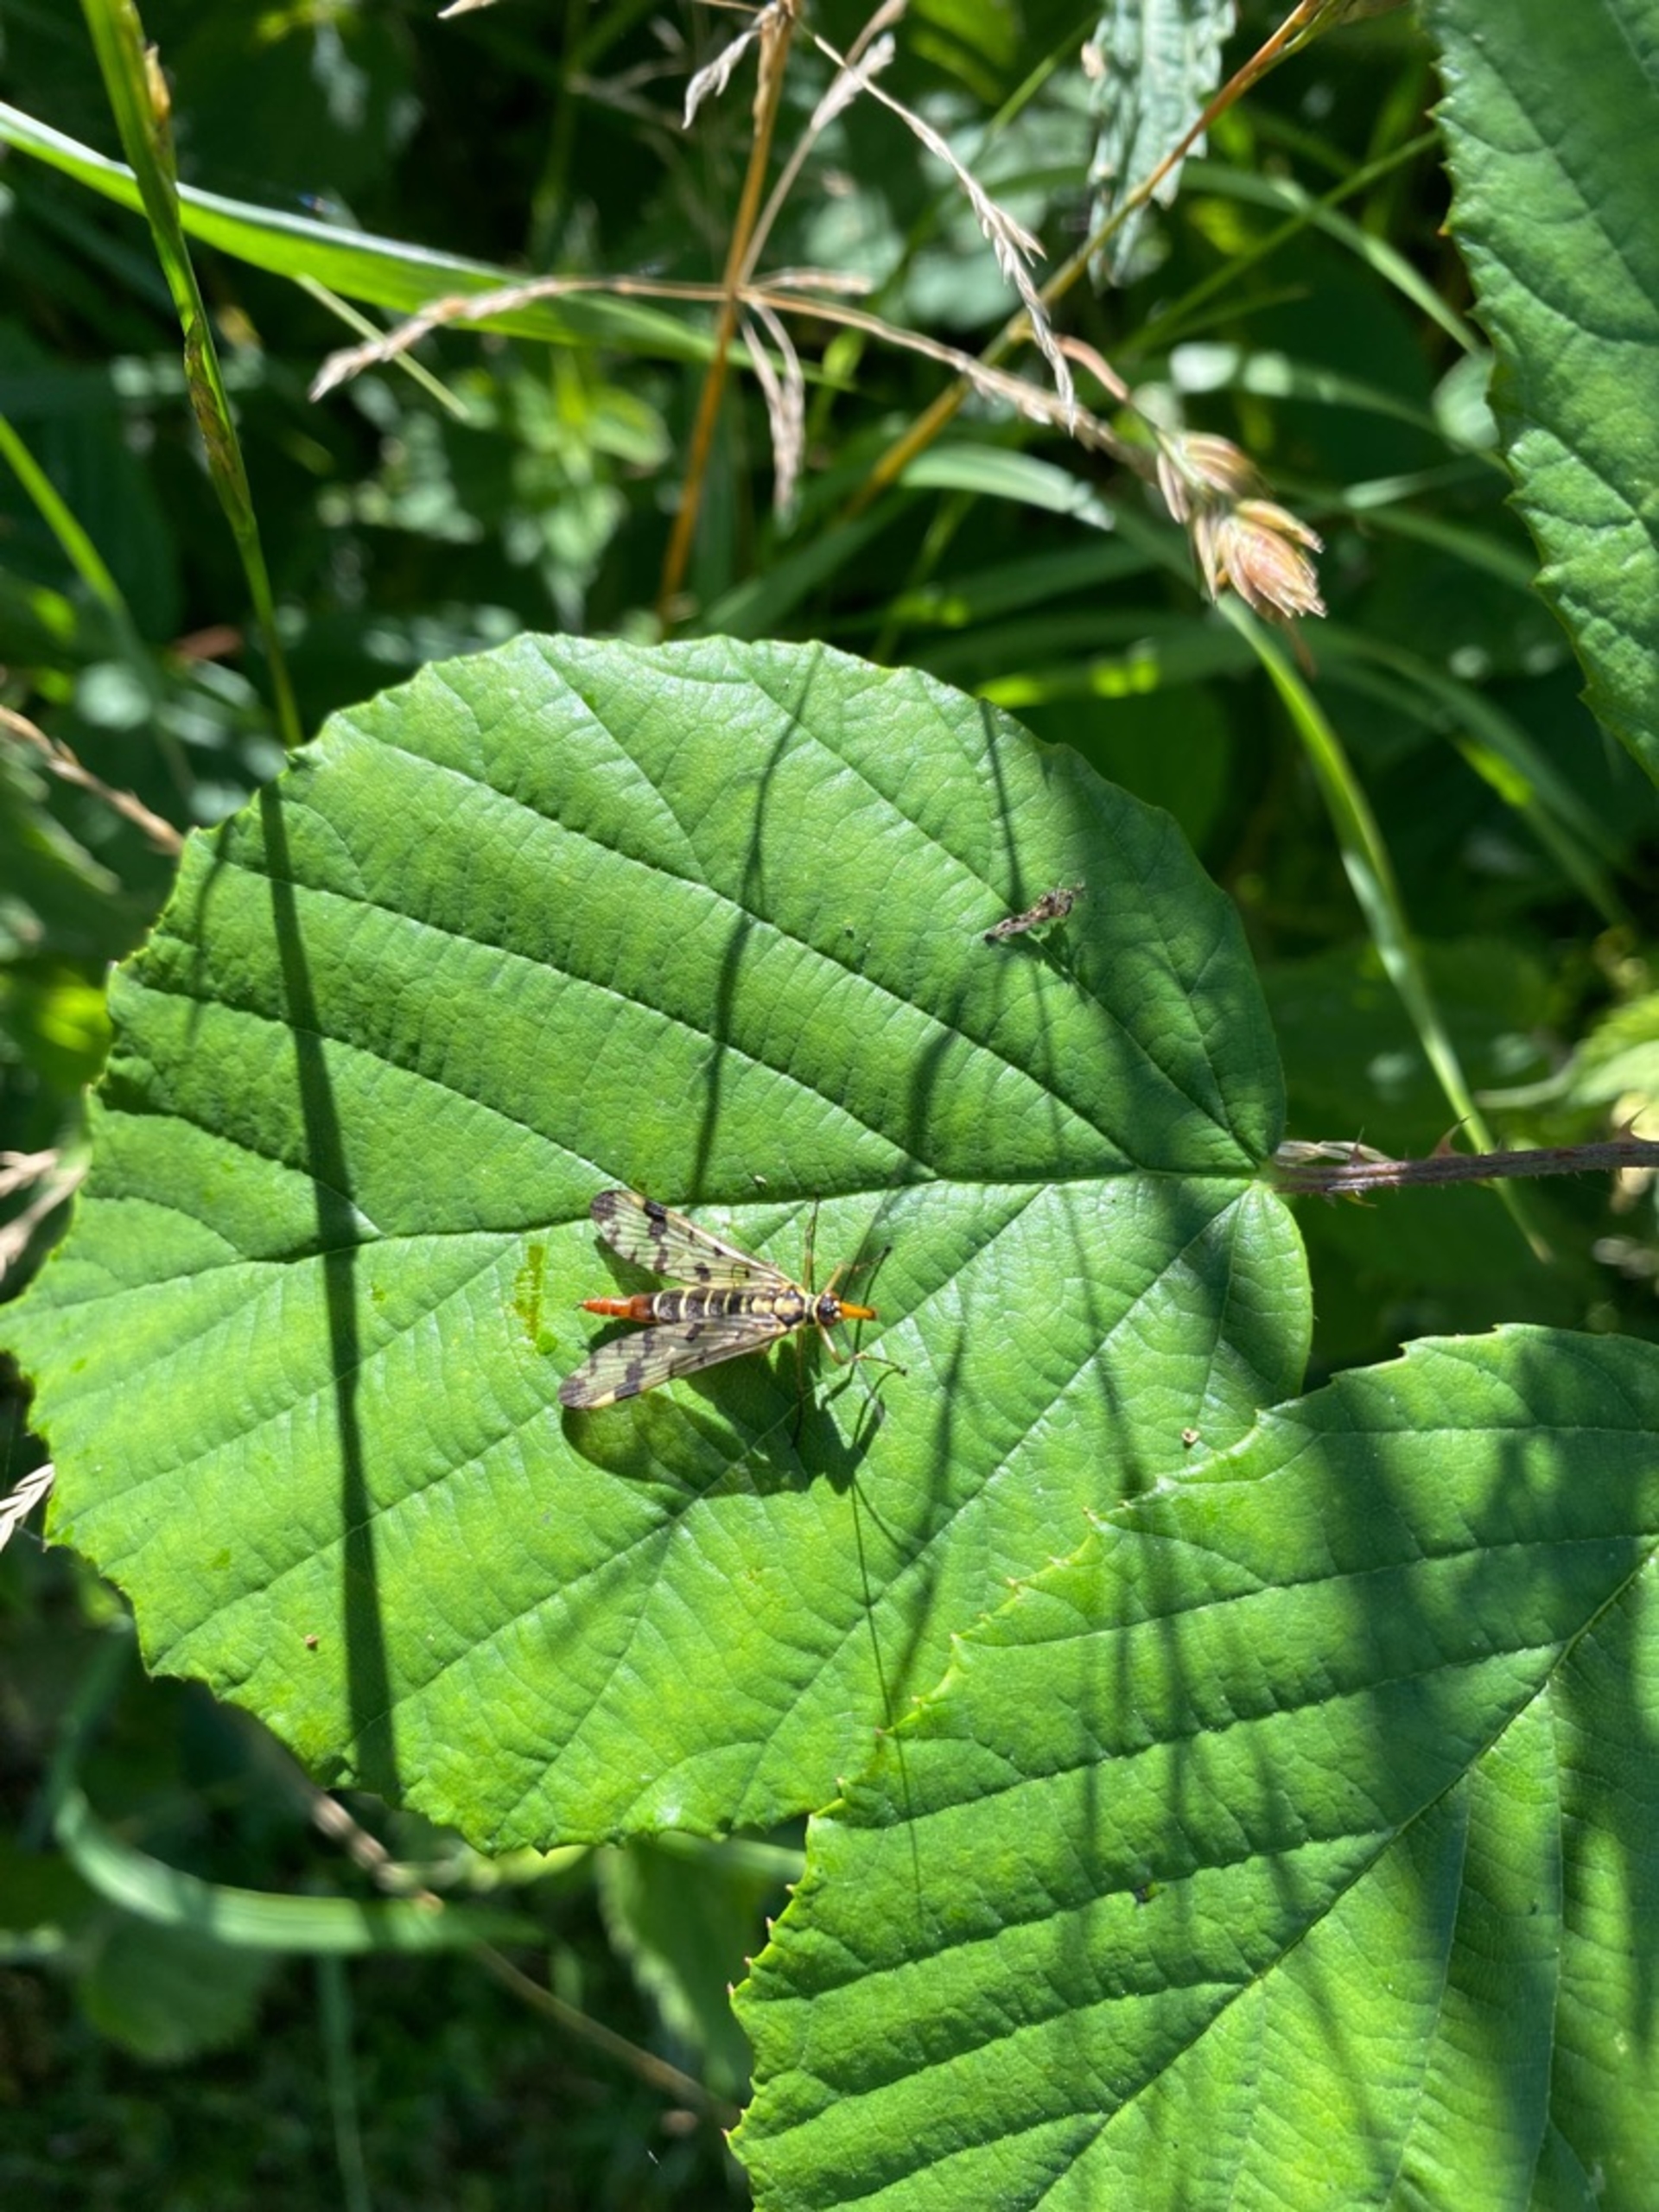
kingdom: Animalia
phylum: Arthropoda
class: Insecta
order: Mecoptera
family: Panorpidae
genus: Panorpa
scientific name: Panorpa communis
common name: Almindelig skorpionflue
